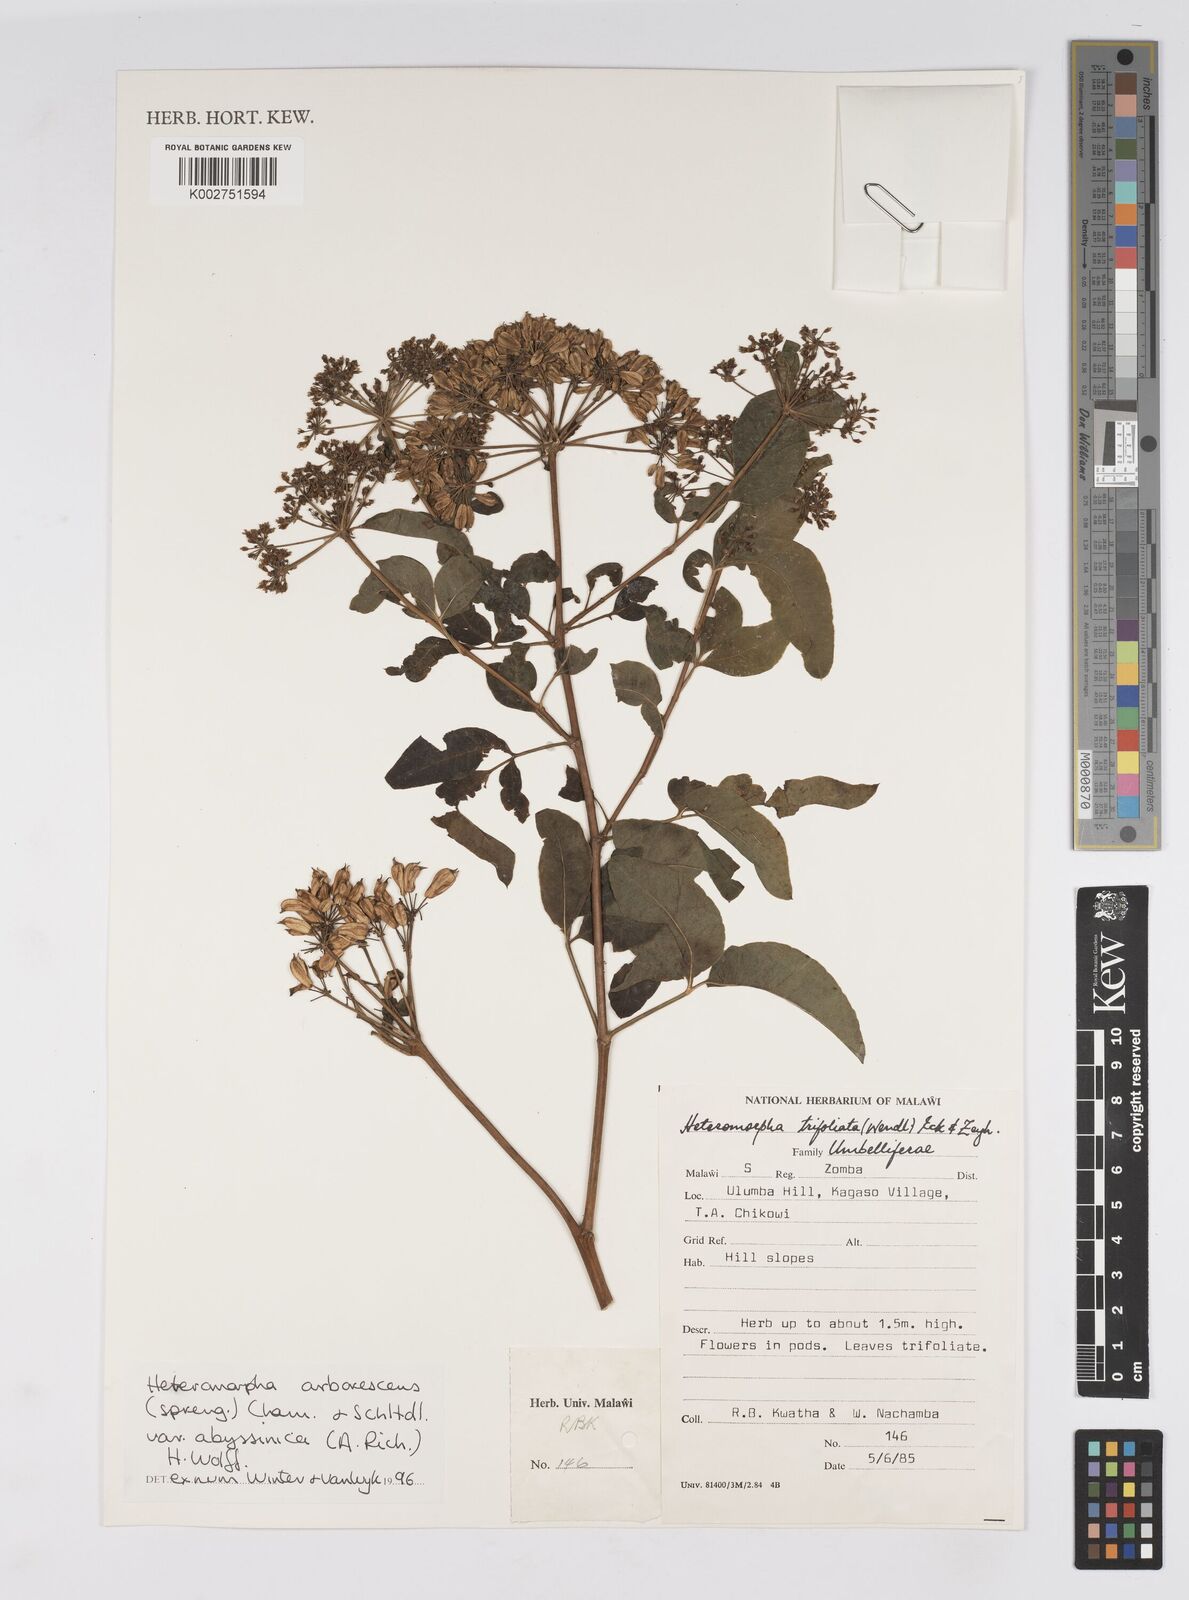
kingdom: Plantae
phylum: Tracheophyta
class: Magnoliopsida
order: Apiales
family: Apiaceae
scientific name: Apiaceae
